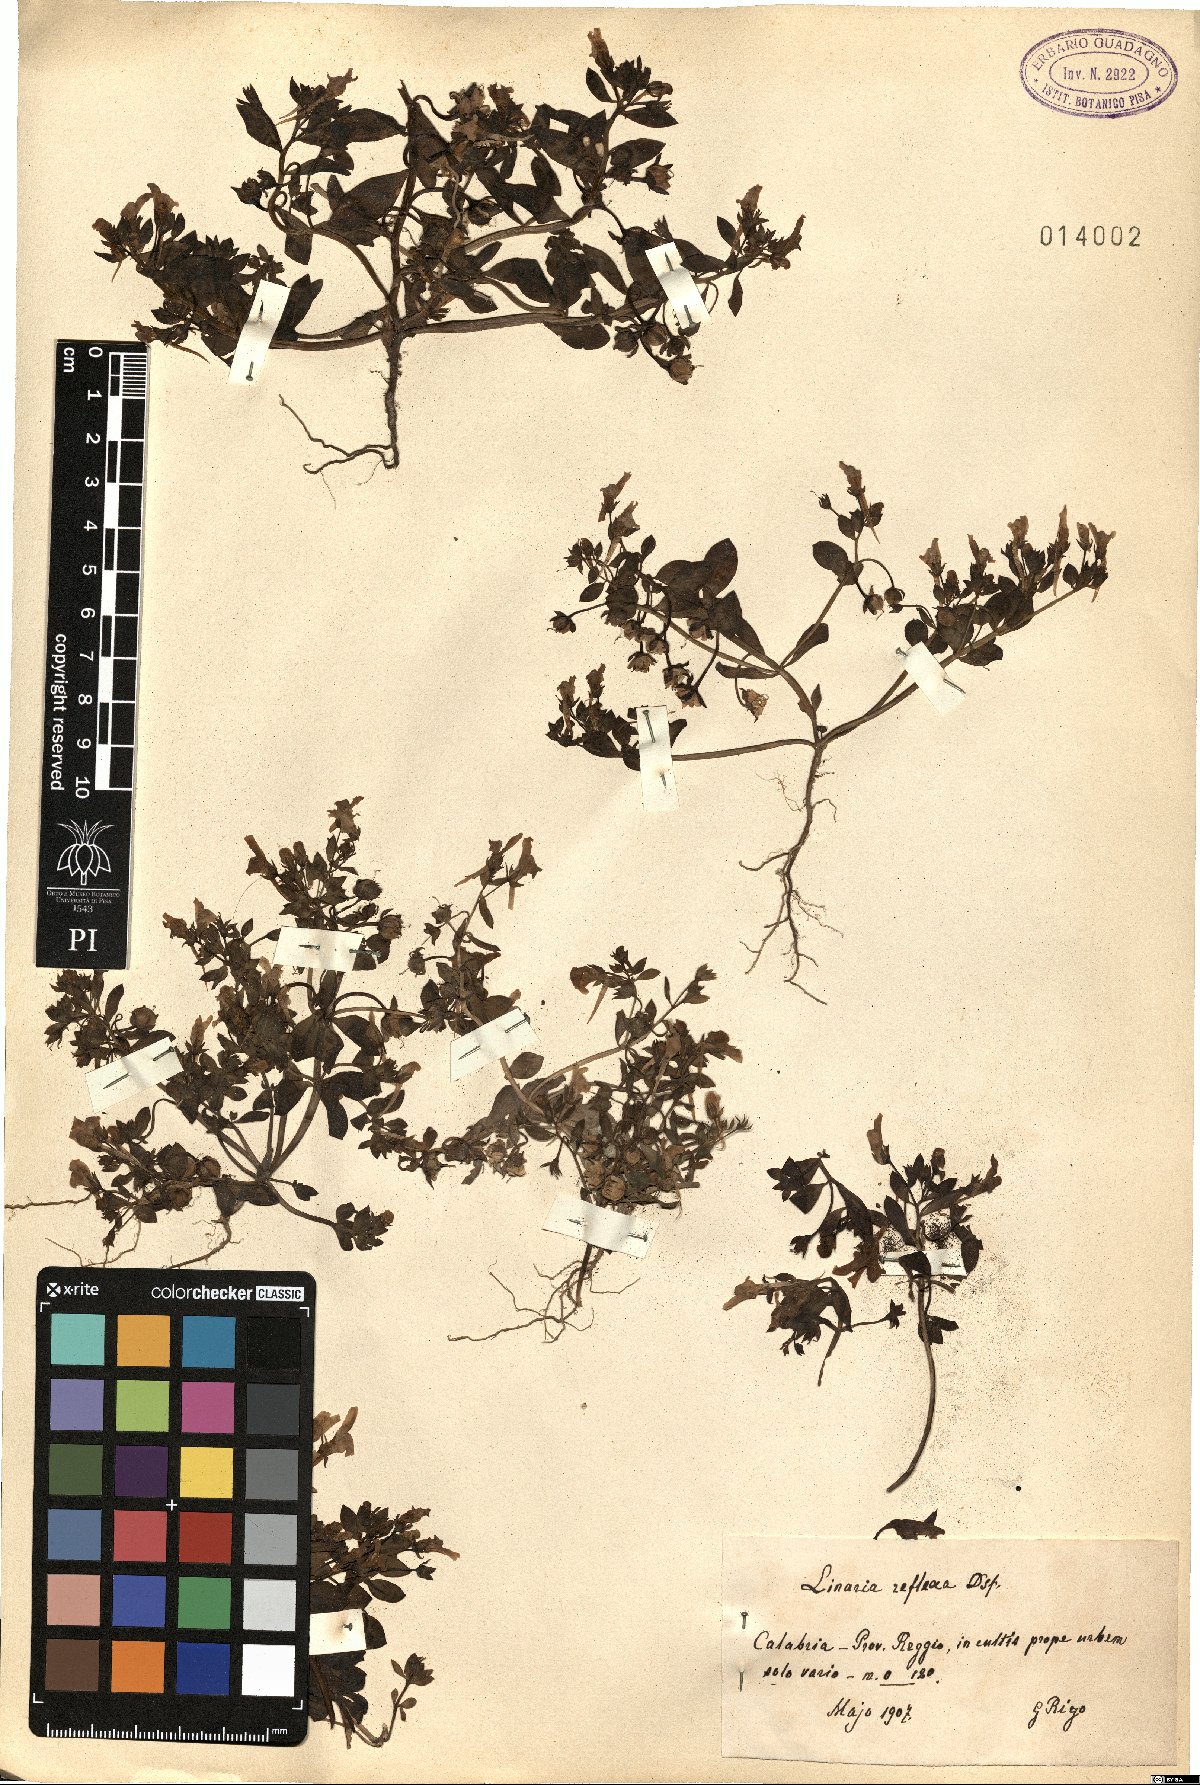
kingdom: Plantae
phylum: Tracheophyta
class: Magnoliopsida
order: Lamiales
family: Plantaginaceae
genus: Linaria
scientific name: Linaria reflexa
